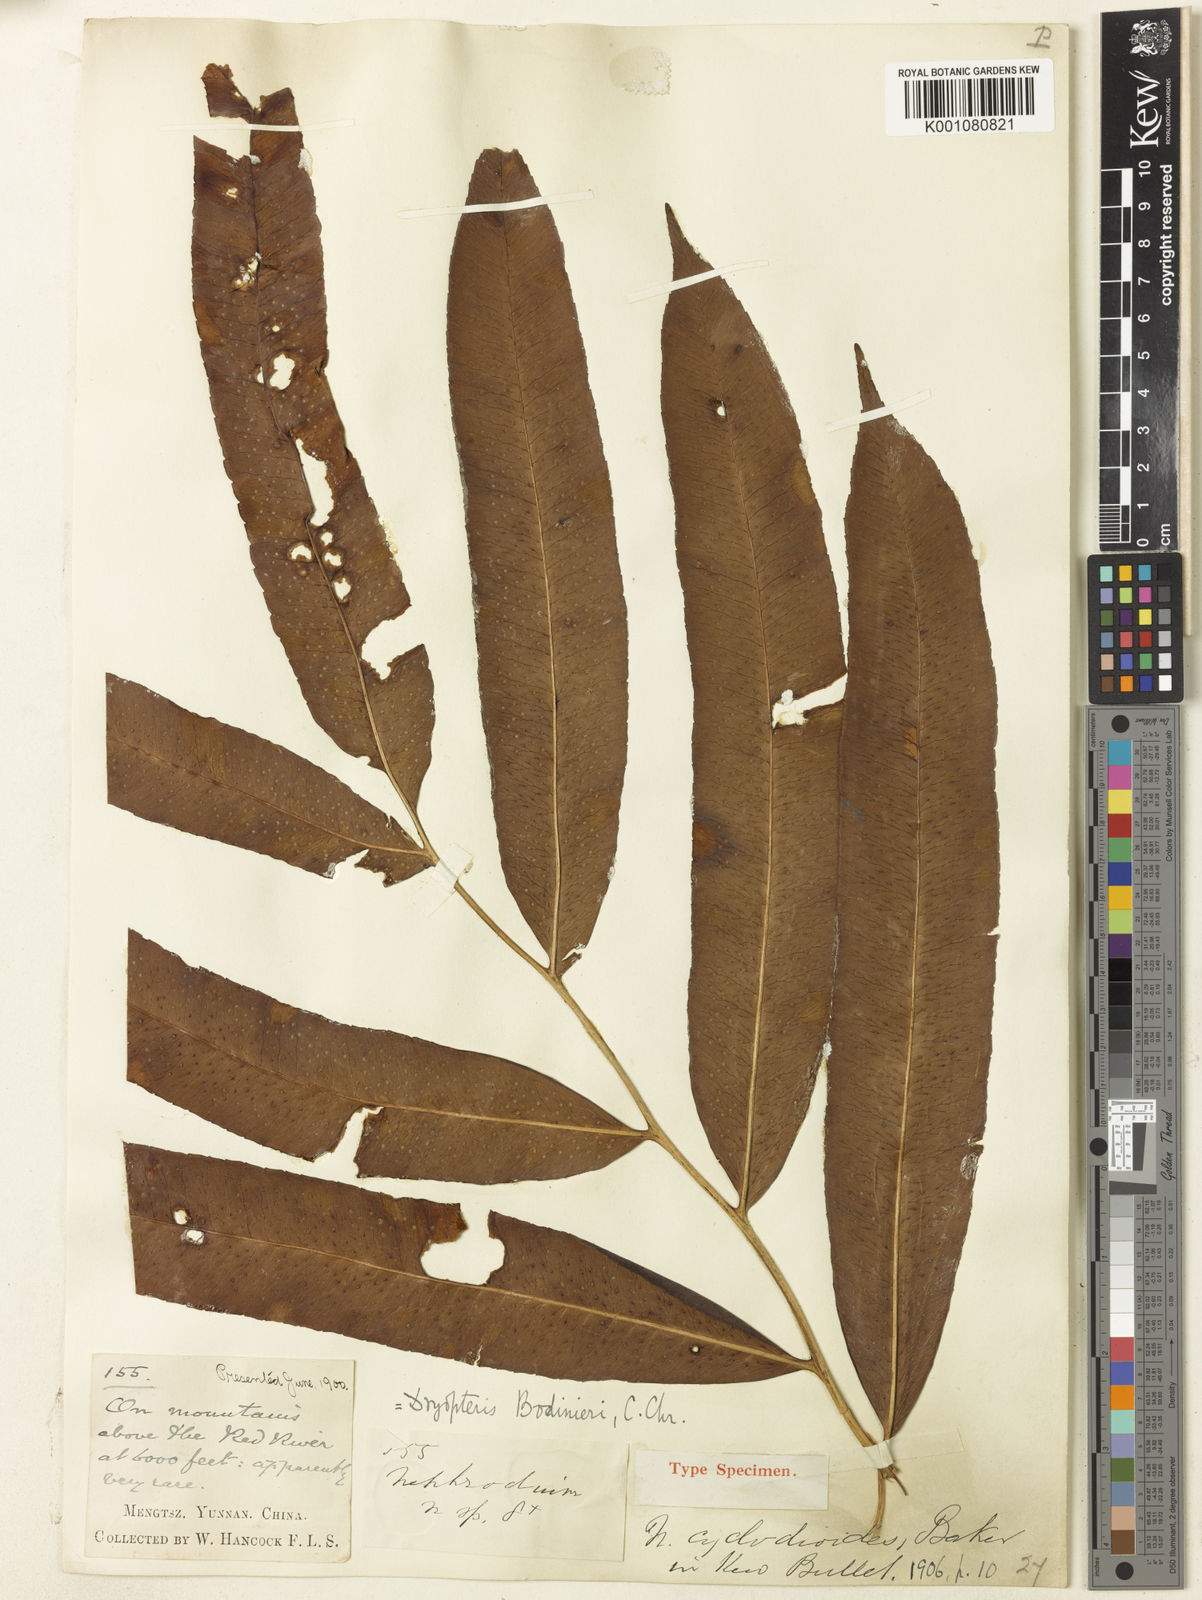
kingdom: Plantae
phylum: Tracheophyta
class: Polypodiopsida
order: Polypodiales
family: Dryopteridaceae
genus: Dryopteris
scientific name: Dryopteris bodinieri
